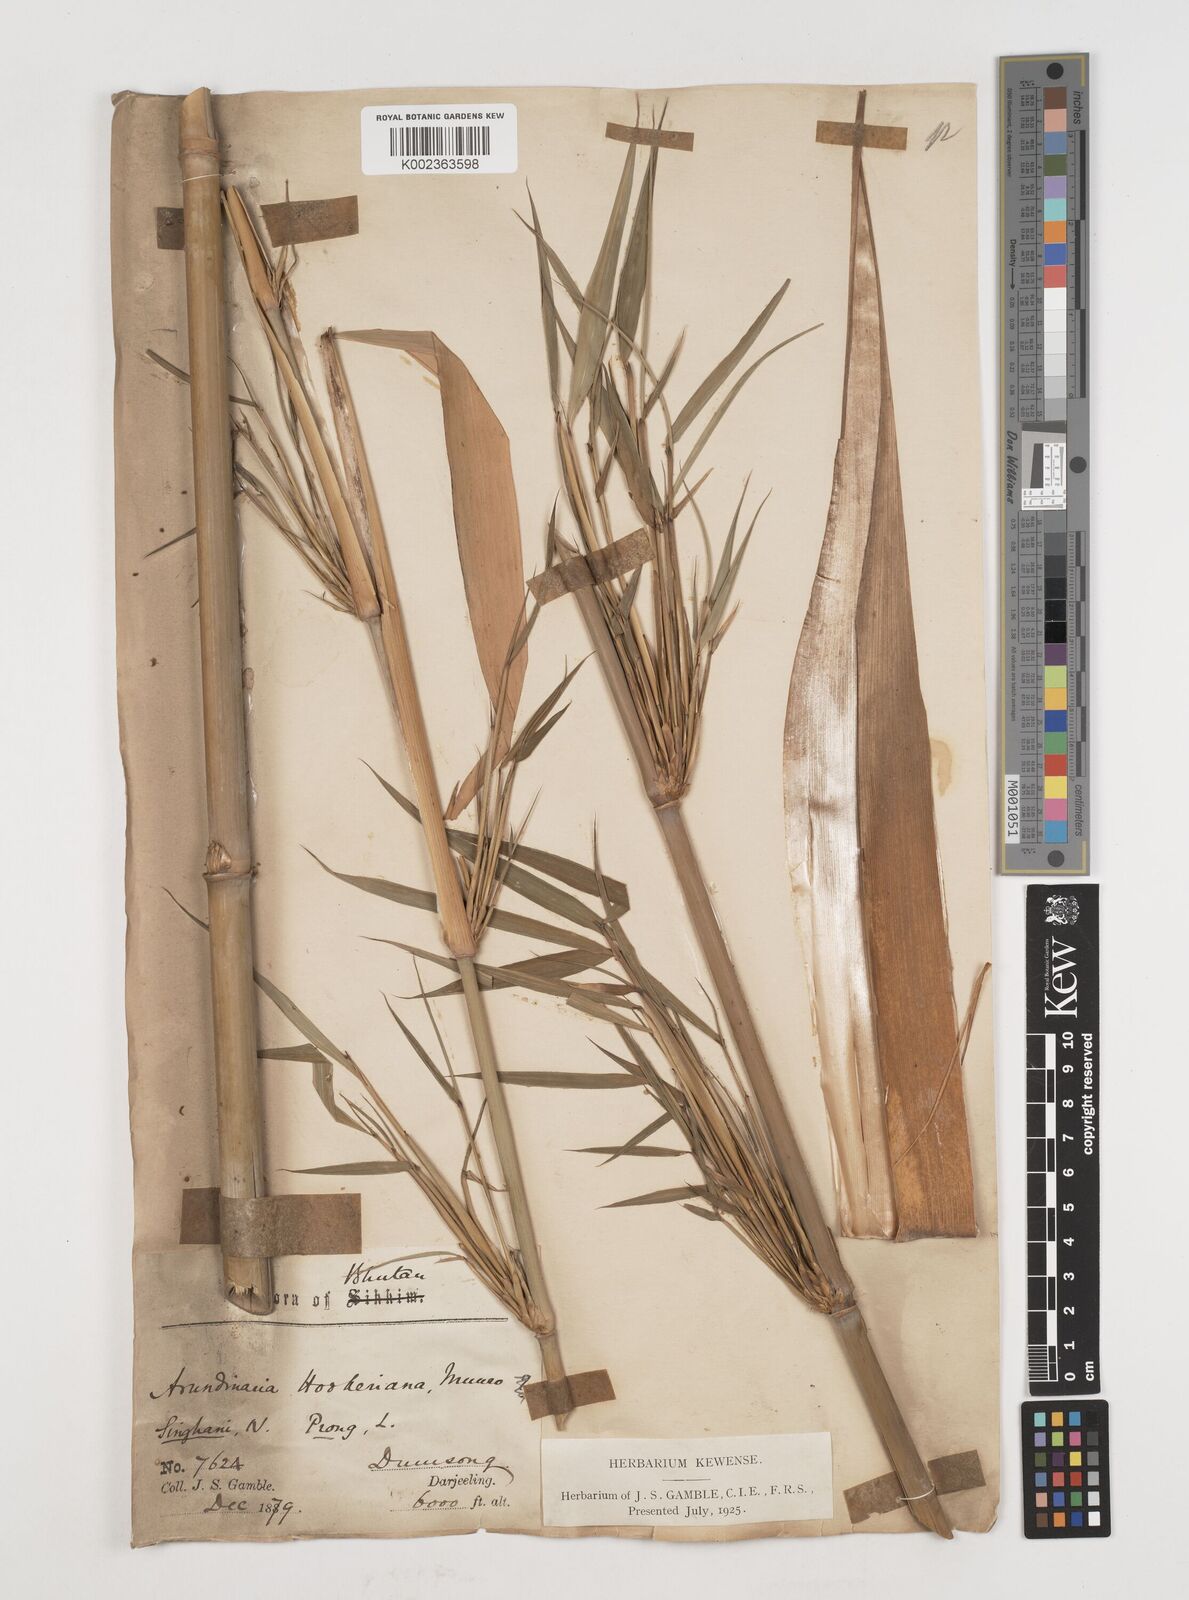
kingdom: Plantae
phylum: Tracheophyta
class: Liliopsida
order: Poales
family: Poaceae
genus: Himalayacalamus
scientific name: Himalayacalamus hookerianus
